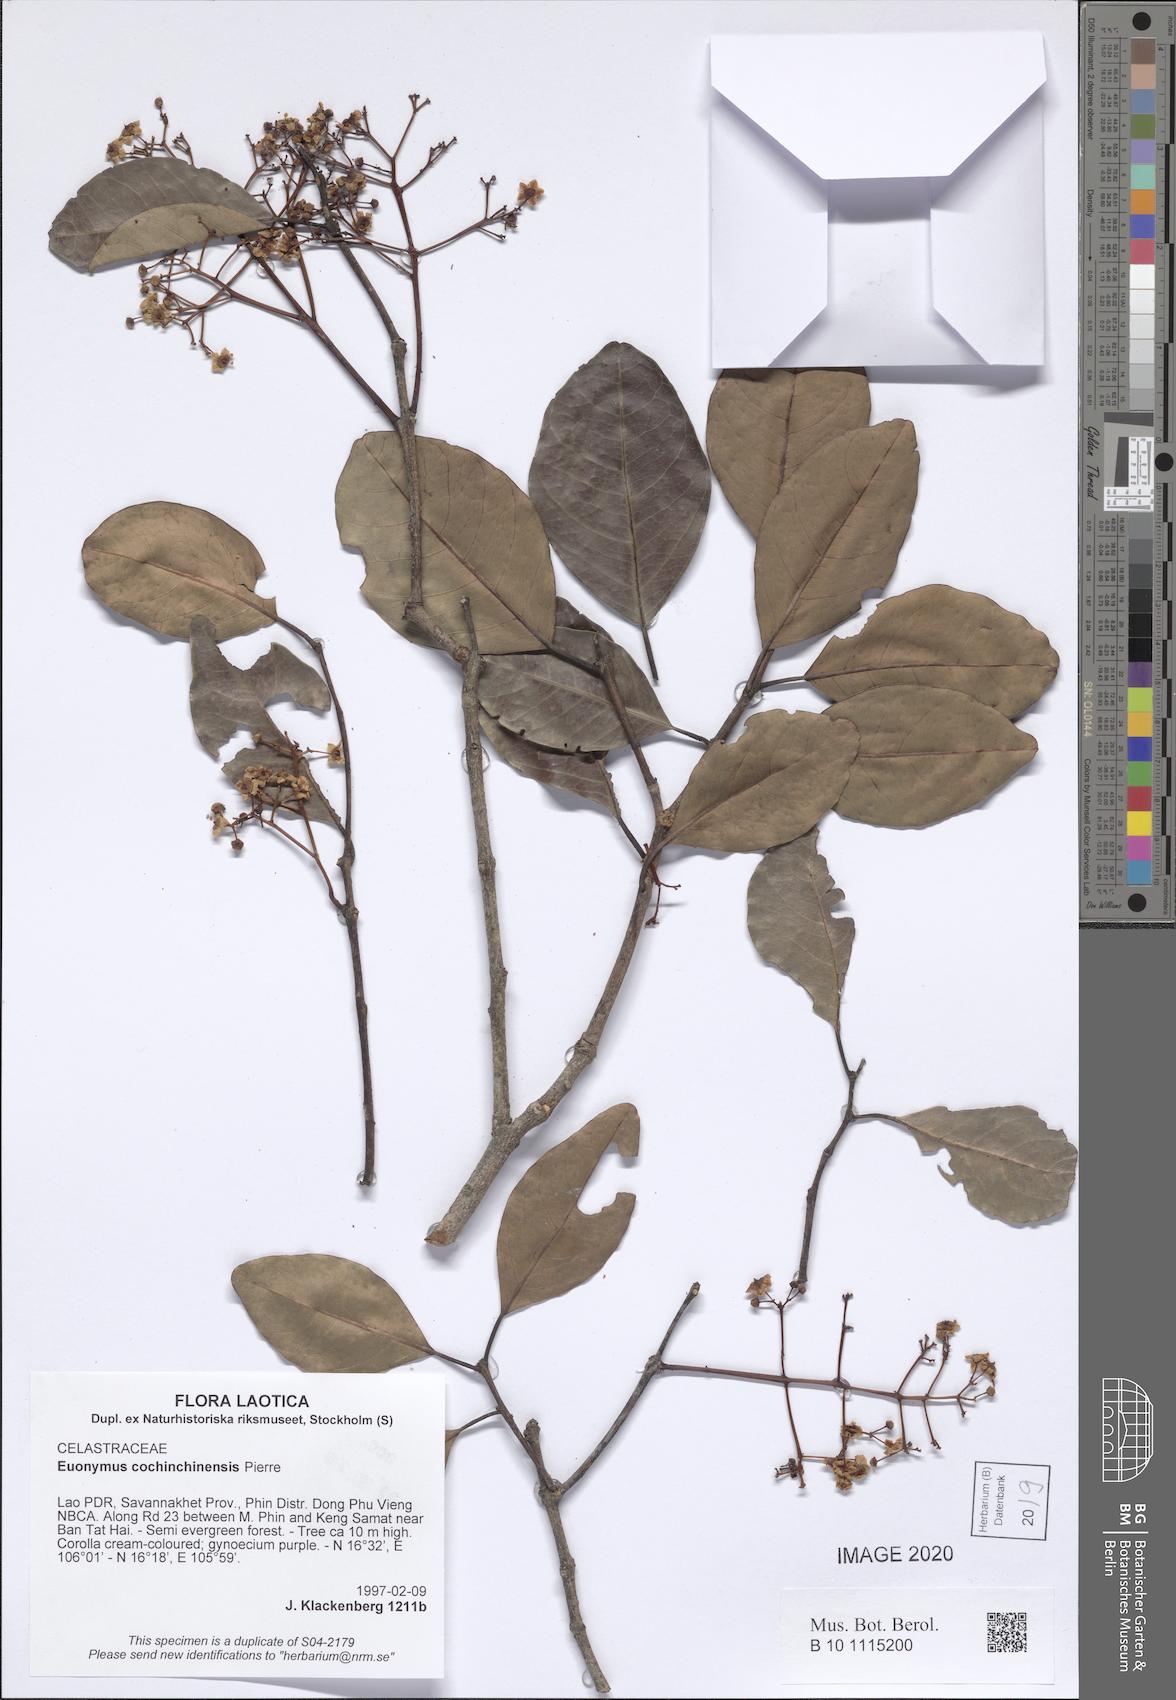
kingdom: Plantae
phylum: Tracheophyta
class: Magnoliopsida
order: Celastrales
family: Celastraceae
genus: Euonymus
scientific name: Euonymus cochinchinensis
